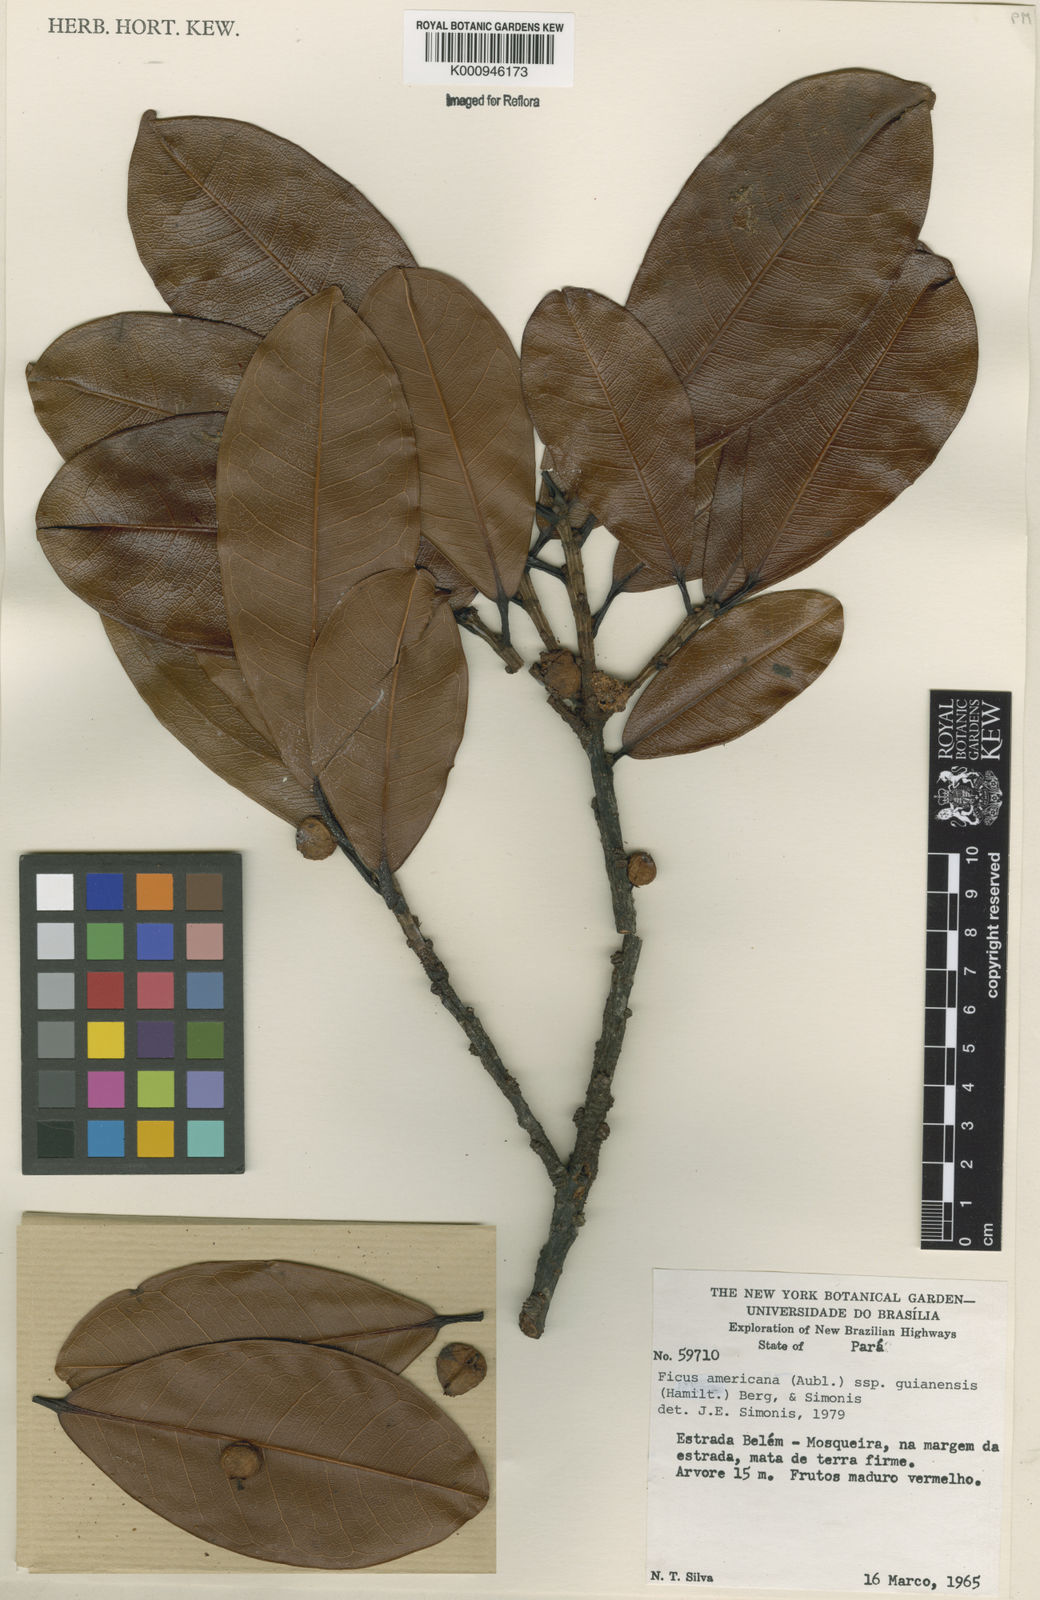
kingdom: Plantae
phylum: Tracheophyta
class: Magnoliopsida
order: Rosales
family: Moraceae
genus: Ficus
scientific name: Ficus americana
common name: Jamaican cherry fig
